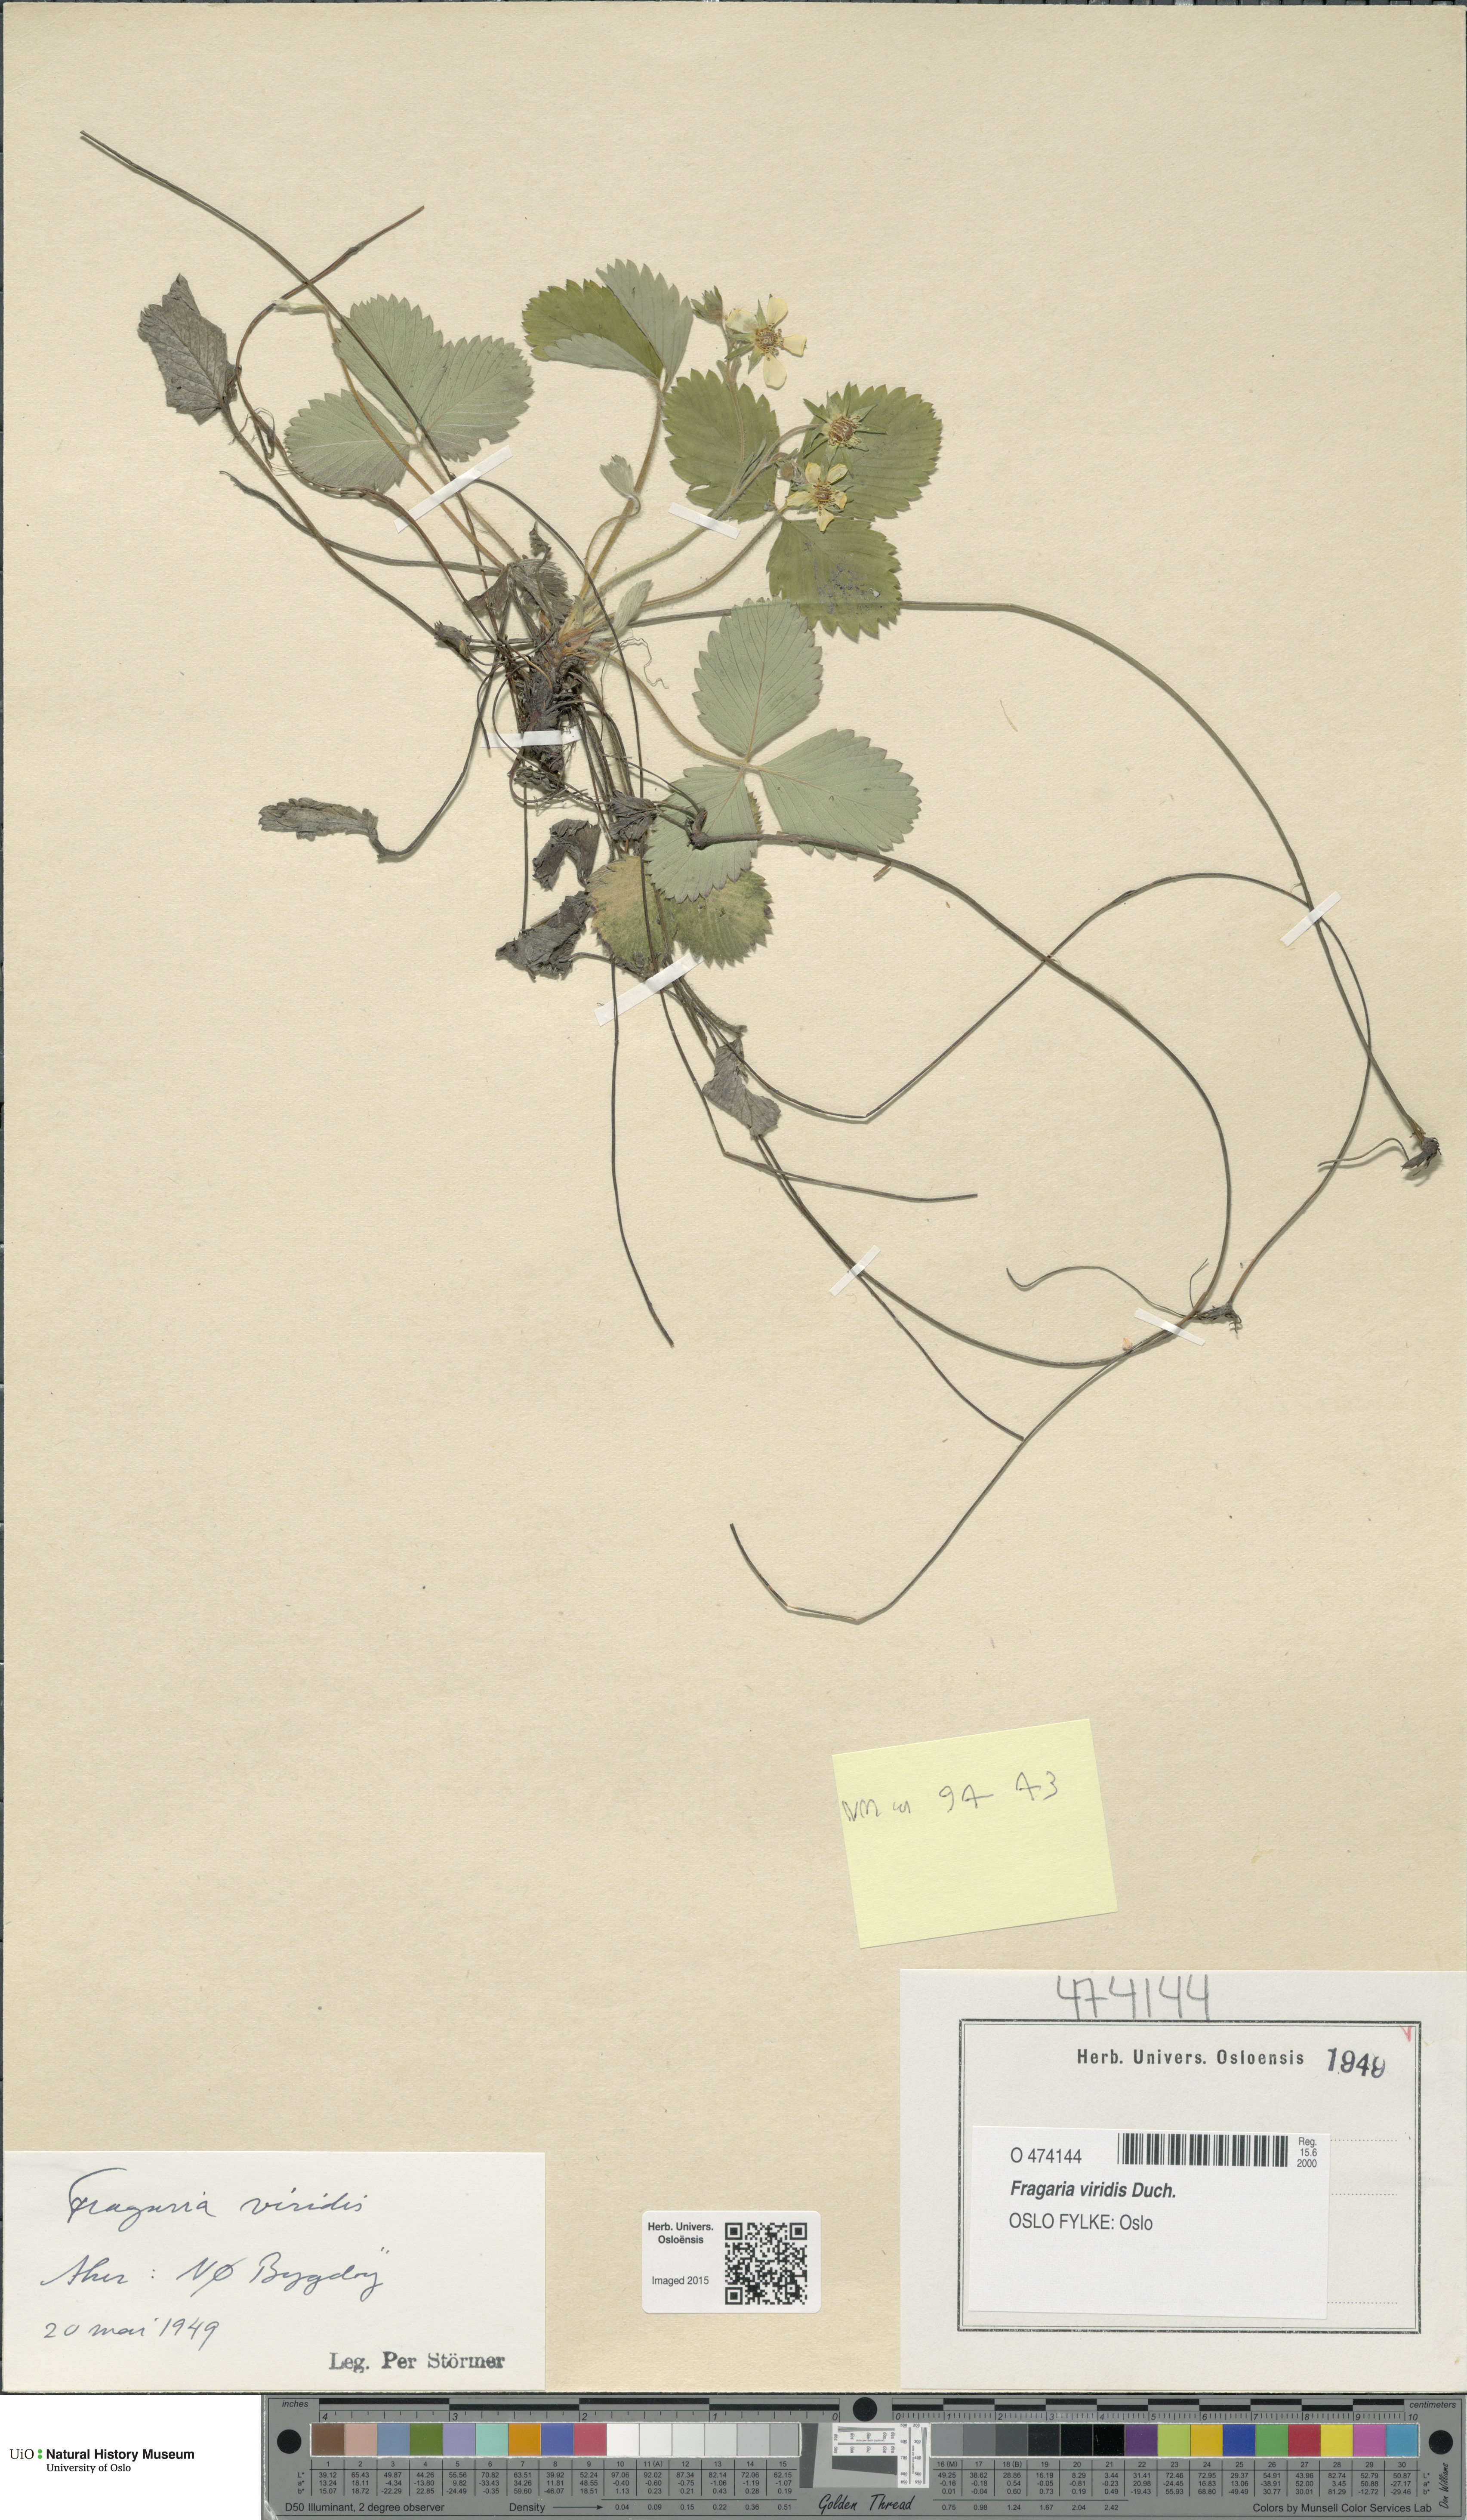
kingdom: Plantae
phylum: Tracheophyta
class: Magnoliopsida
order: Rosales
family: Rosaceae
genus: Fragaria
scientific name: Fragaria viridis
